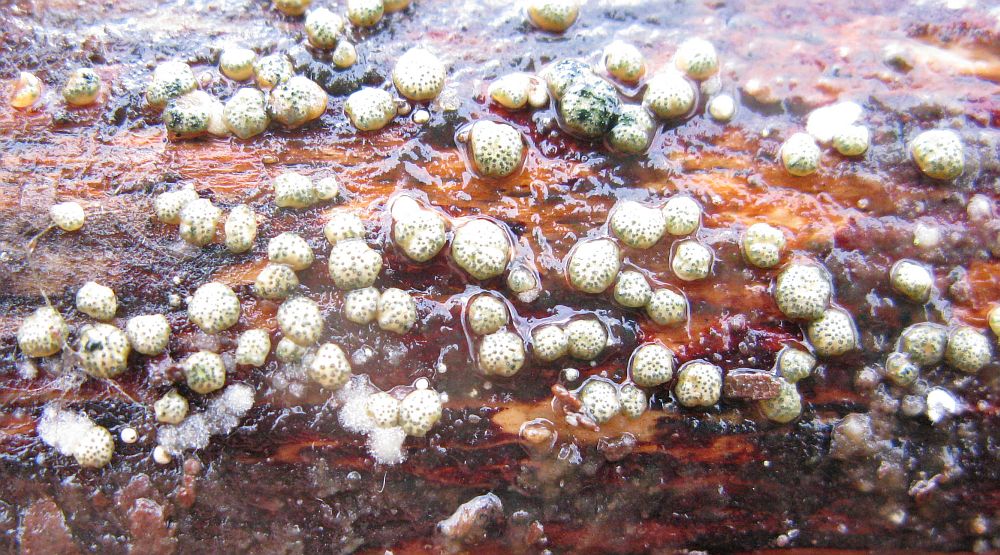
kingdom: Fungi
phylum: Ascomycota
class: Sordariomycetes
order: Hypocreales
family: Hypocreaceae
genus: Trichoderma
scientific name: Trichoderma strictipile
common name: grønprikket kødkerne
